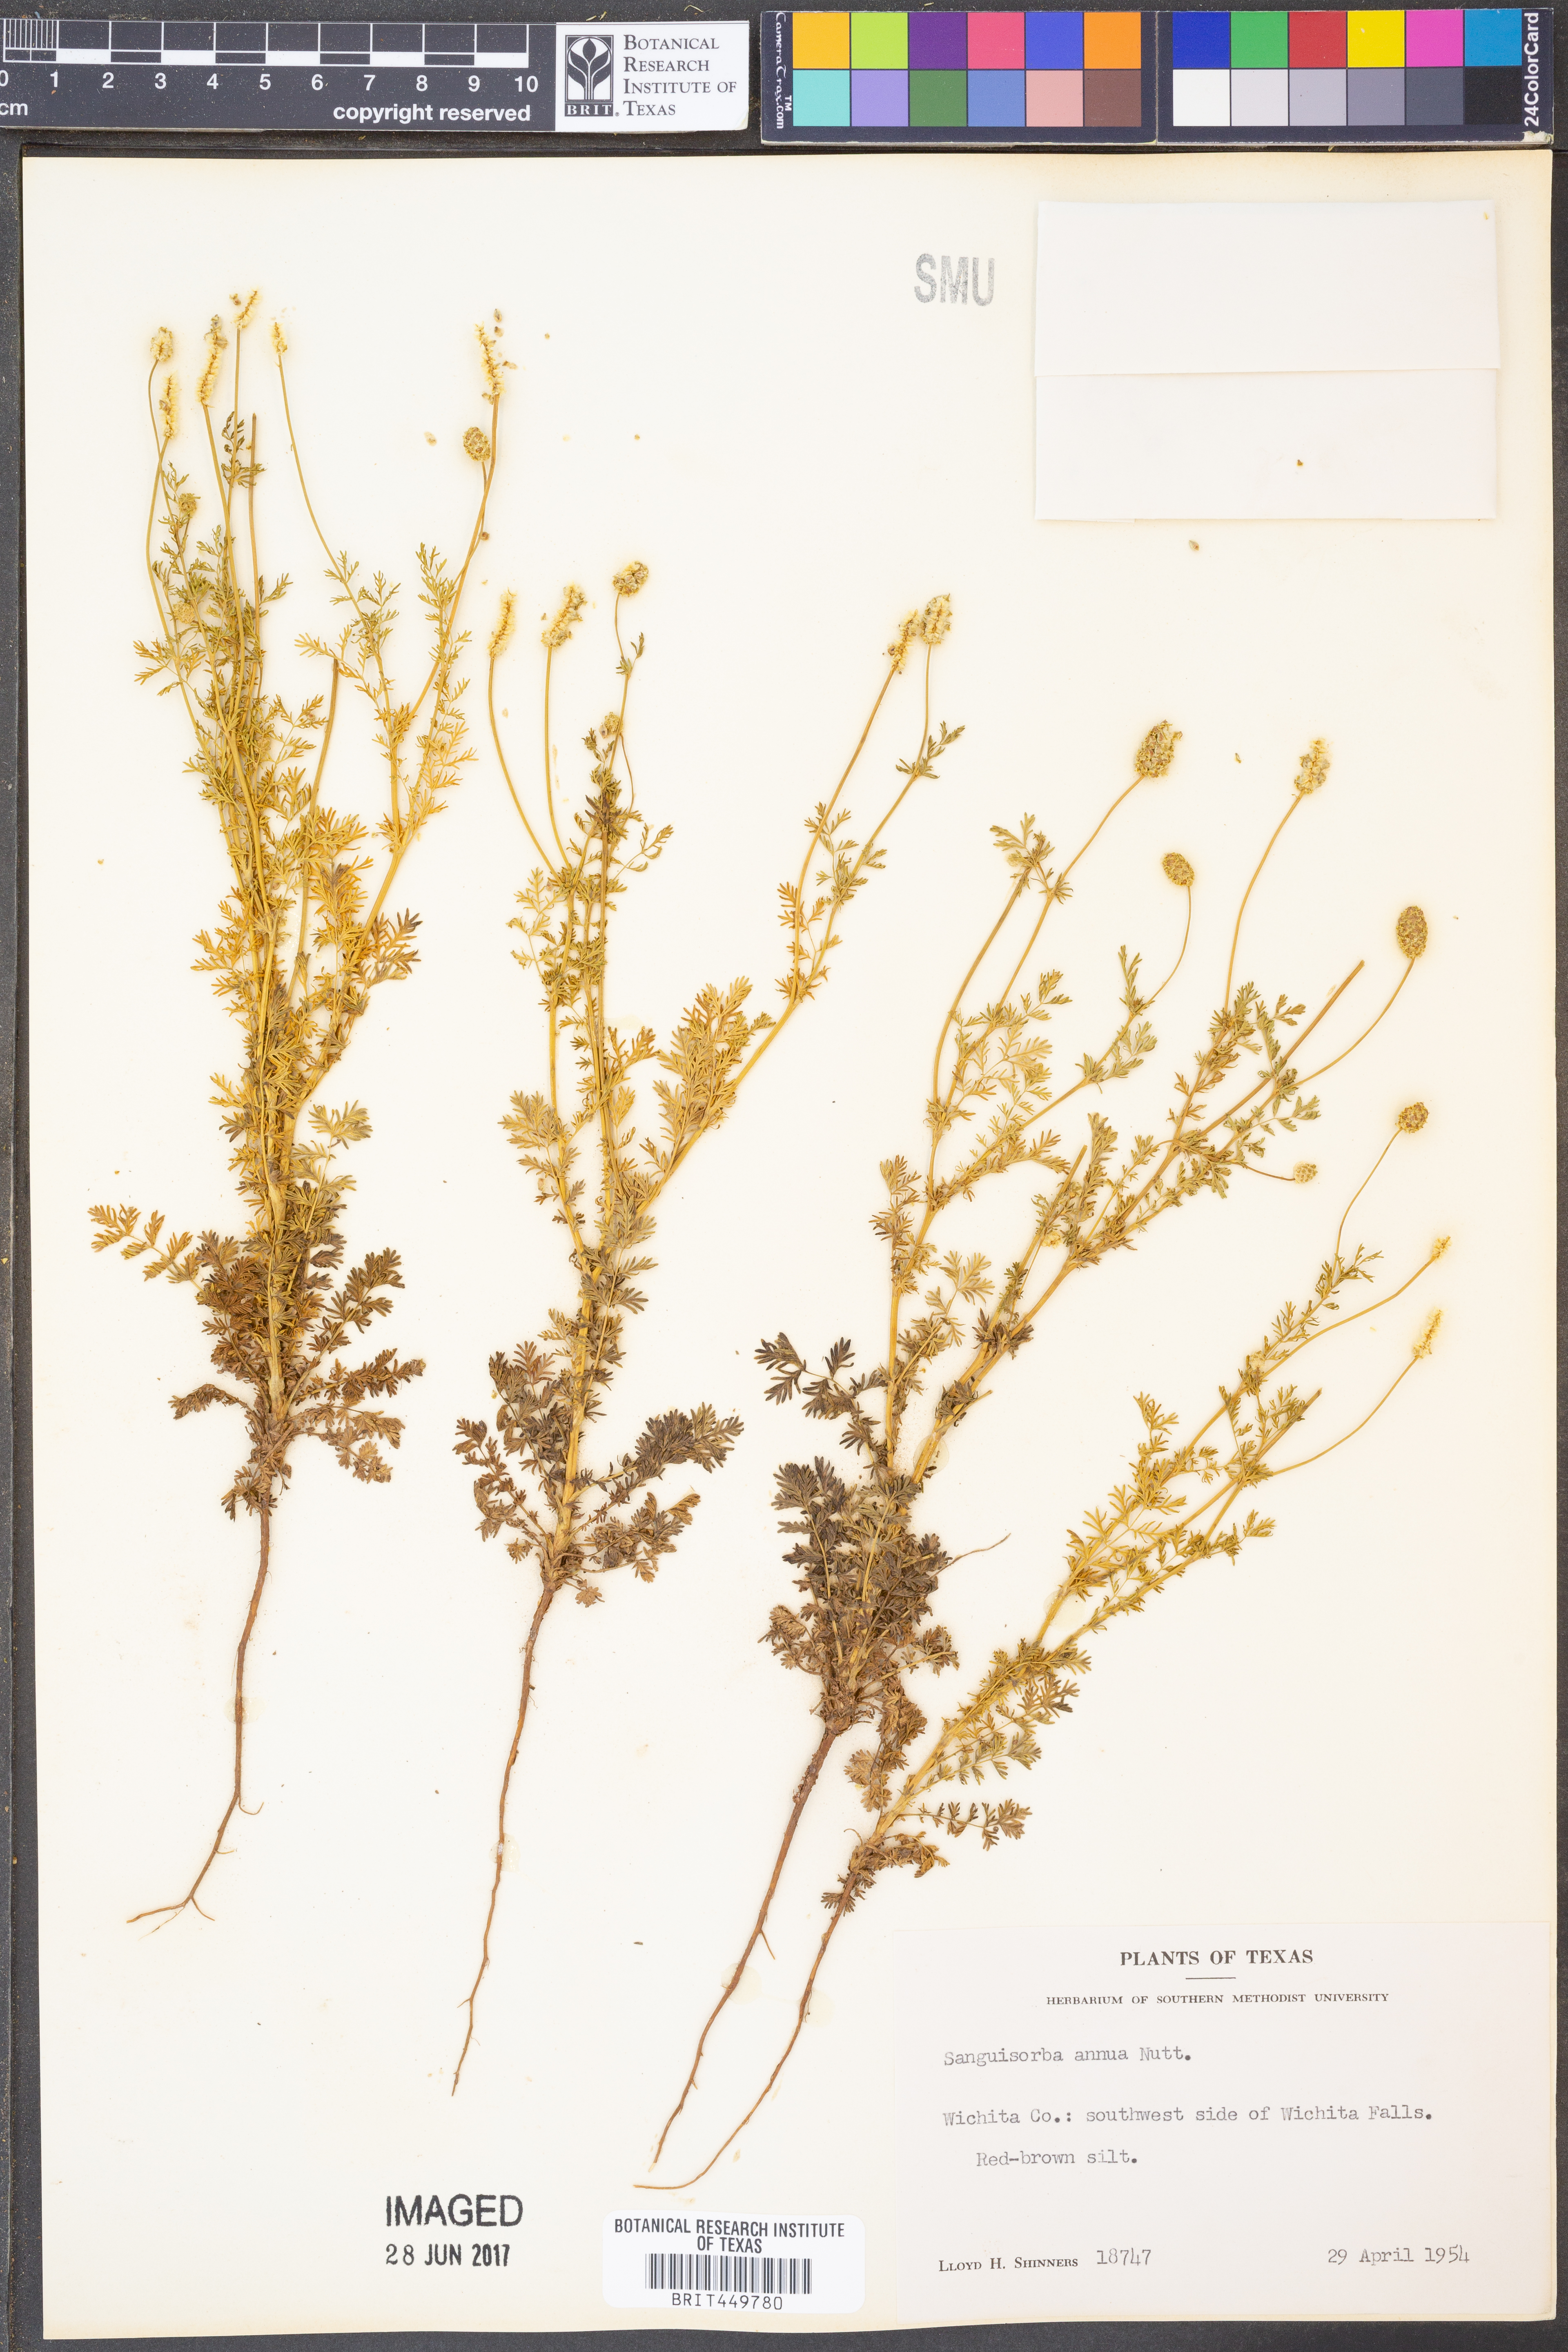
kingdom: Plantae
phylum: Tracheophyta
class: Magnoliopsida
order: Rosales
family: Rosaceae
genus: Poteridium
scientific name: Poteridium annuum
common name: Annual burnet
